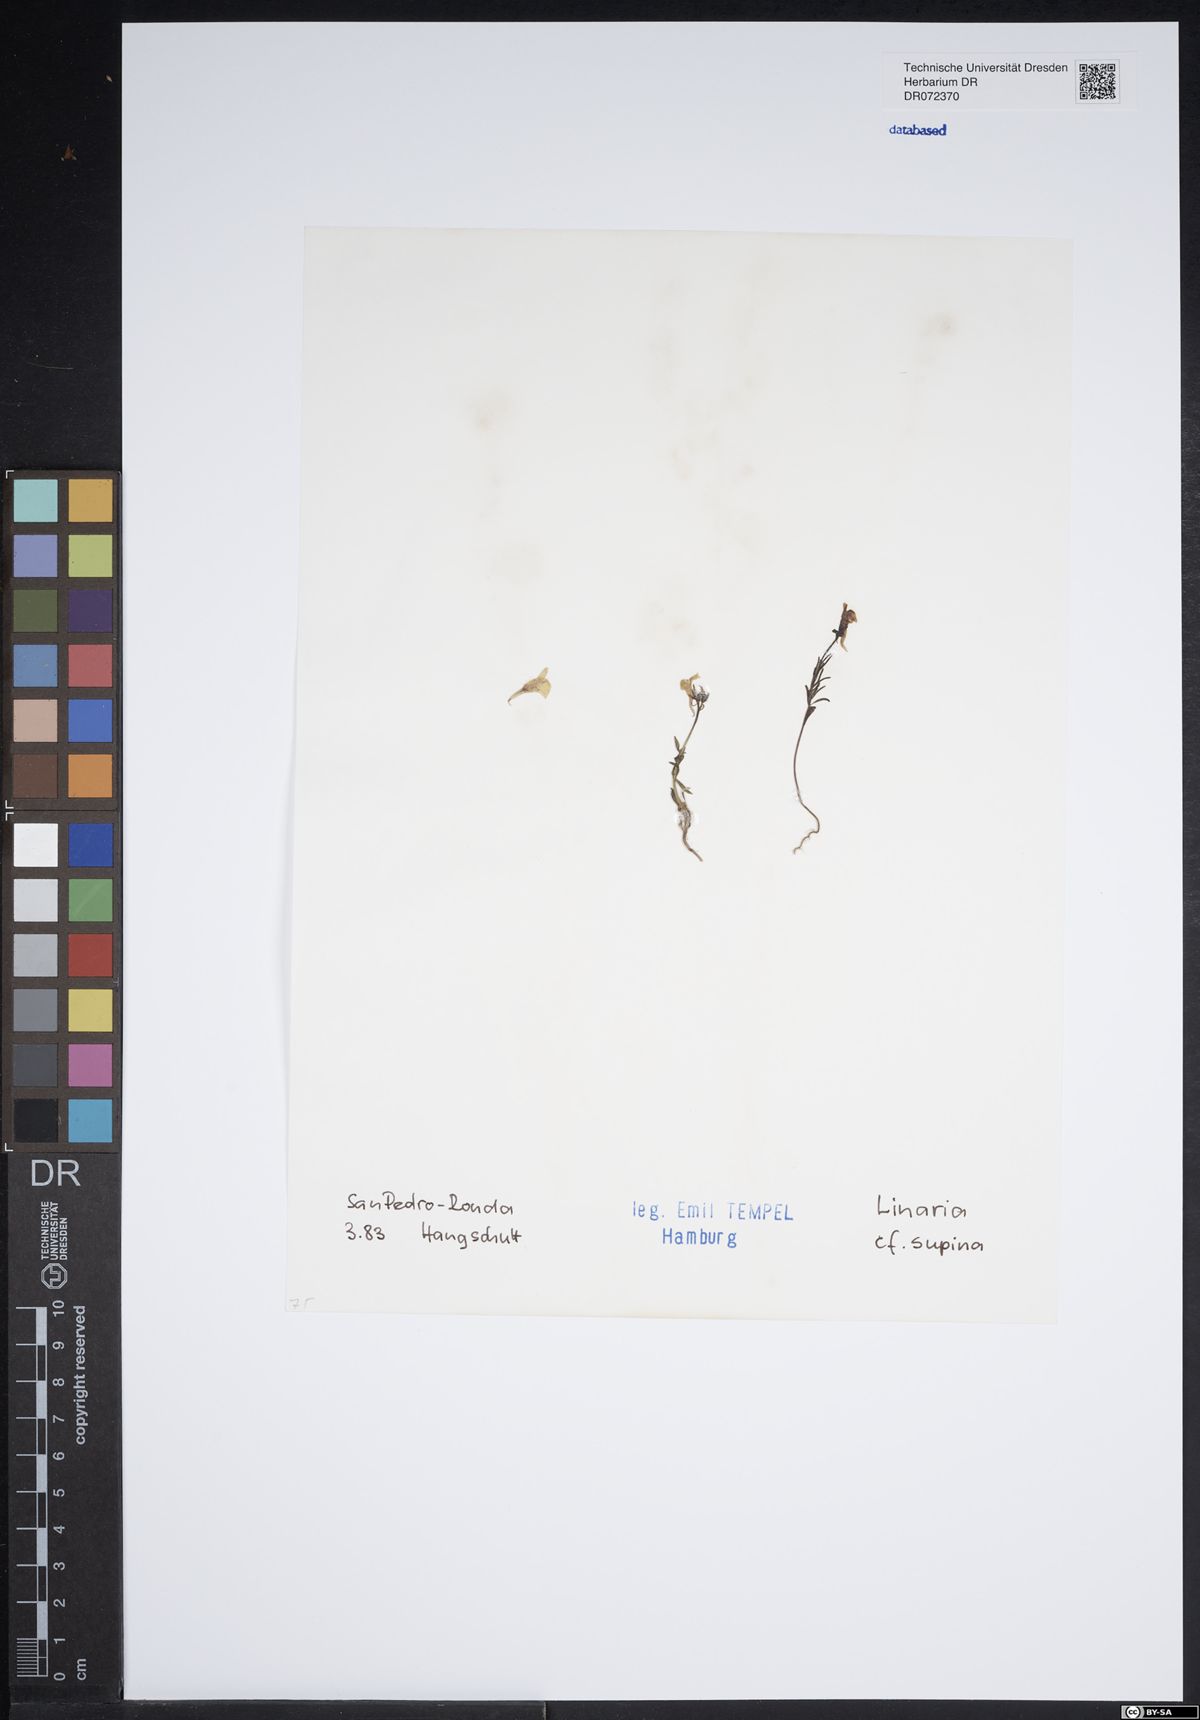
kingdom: Plantae
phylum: Tracheophyta
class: Magnoliopsida
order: Lamiales
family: Plantaginaceae
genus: Linaria
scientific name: Linaria supina
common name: Prostrate toadflax
